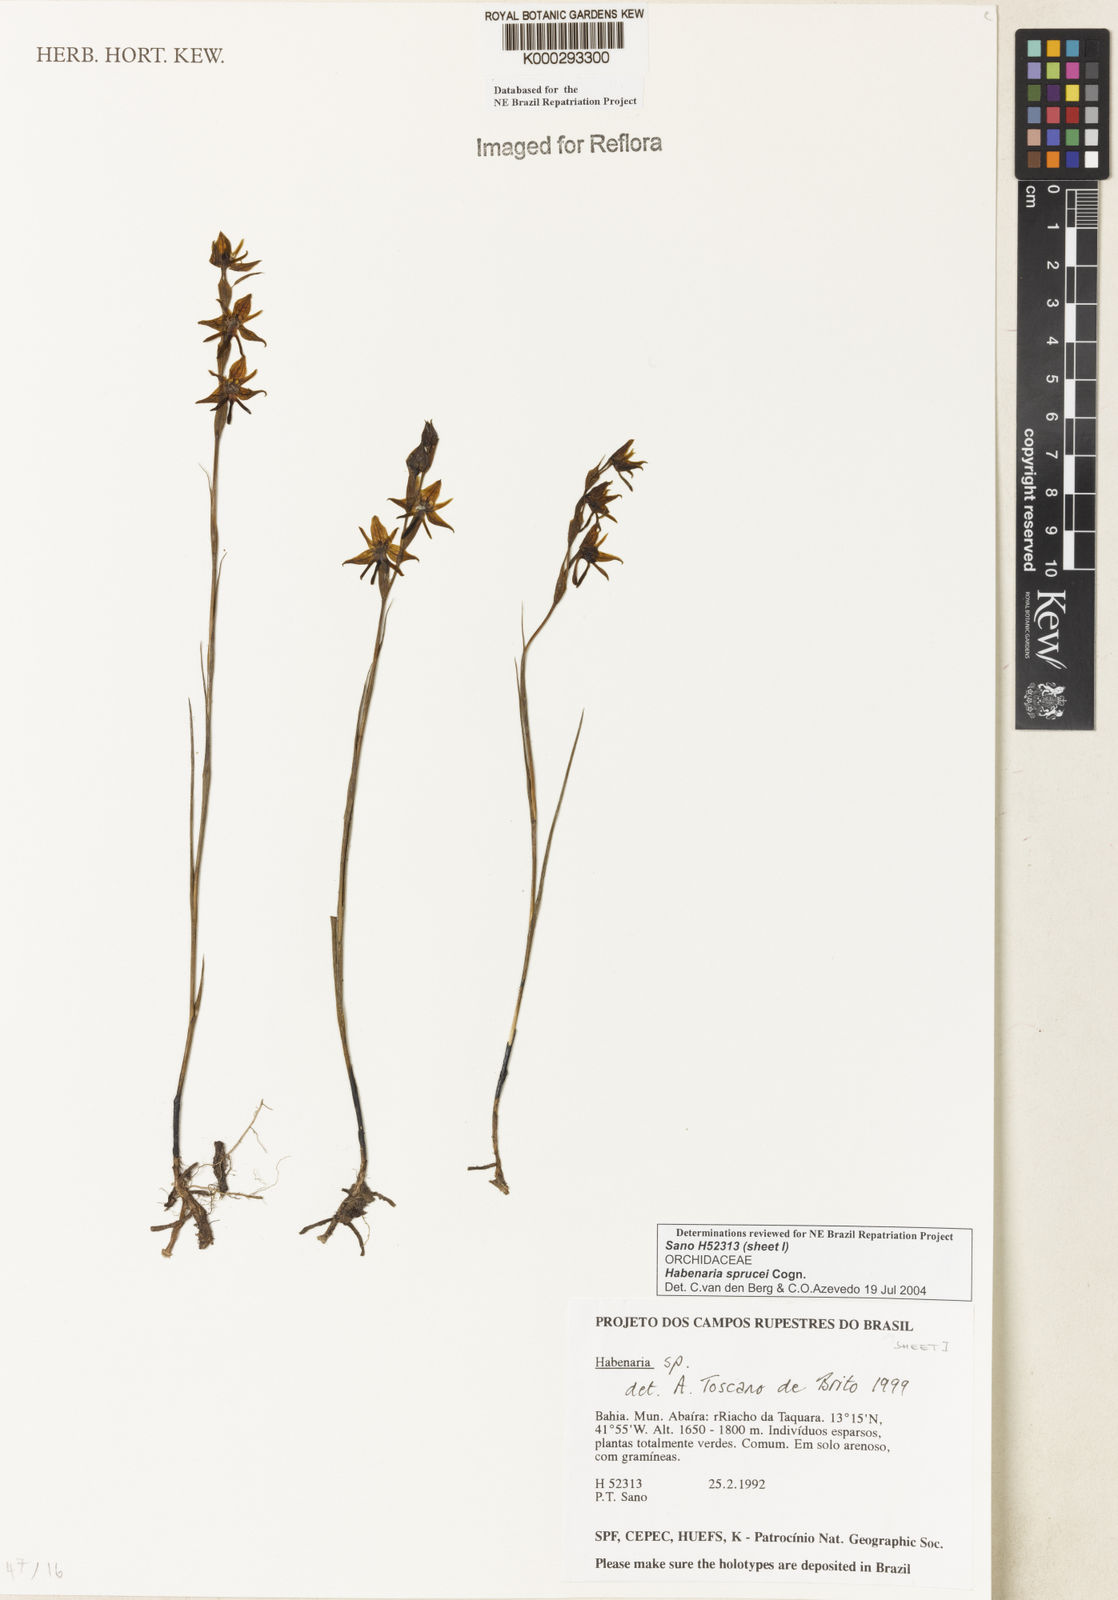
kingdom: Plantae
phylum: Tracheophyta
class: Liliopsida
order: Asparagales
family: Orchidaceae
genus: Habenaria
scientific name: Habenaria sprucei
